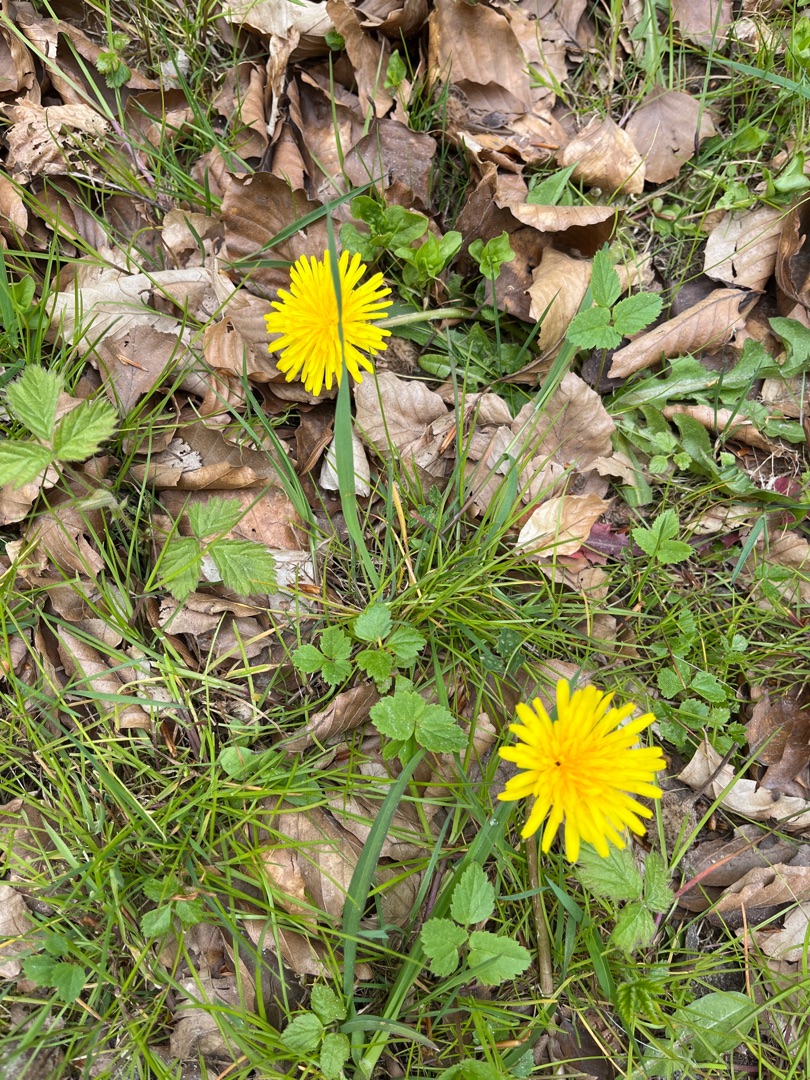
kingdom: Plantae
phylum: Tracheophyta
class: Magnoliopsida
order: Asterales
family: Asteraceae
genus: Taraxacum
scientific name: Taraxacum
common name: Mælkebøtteslægten
